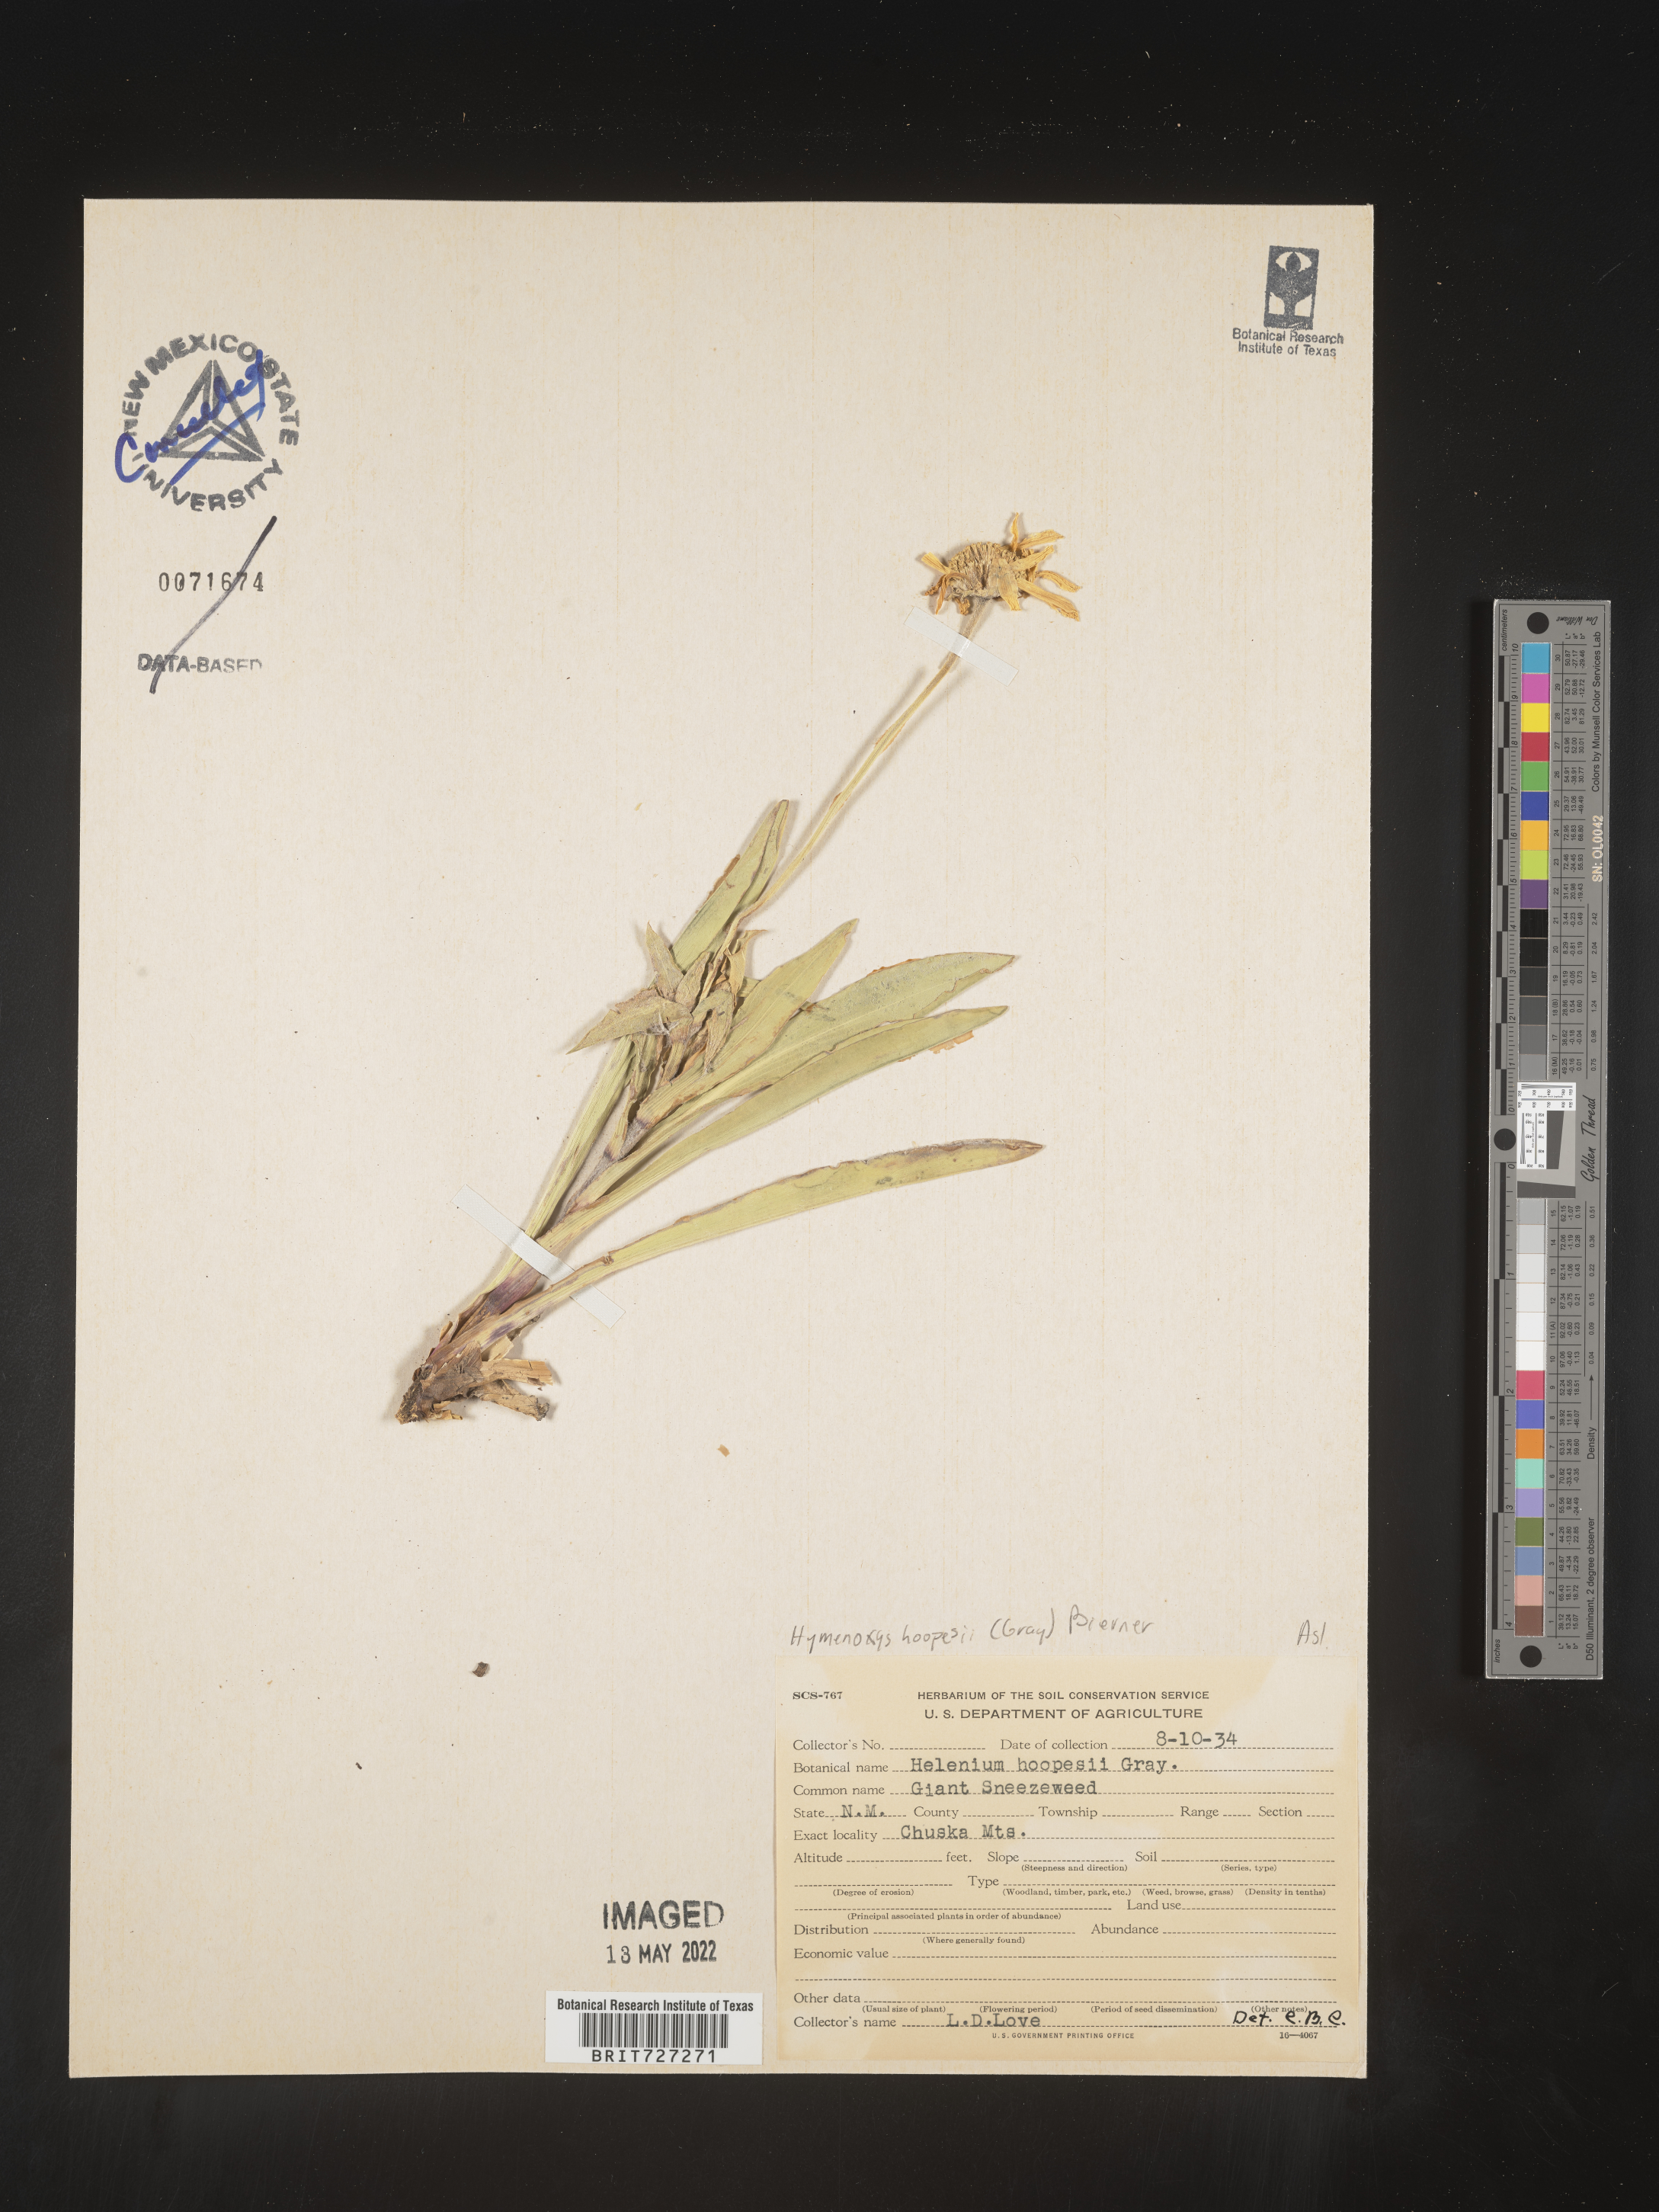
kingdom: Plantae
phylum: Tracheophyta
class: Magnoliopsida
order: Asterales
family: Asteraceae
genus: Hymenoxys
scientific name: Hymenoxys hoopesii
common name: Orange-sneezeweed
